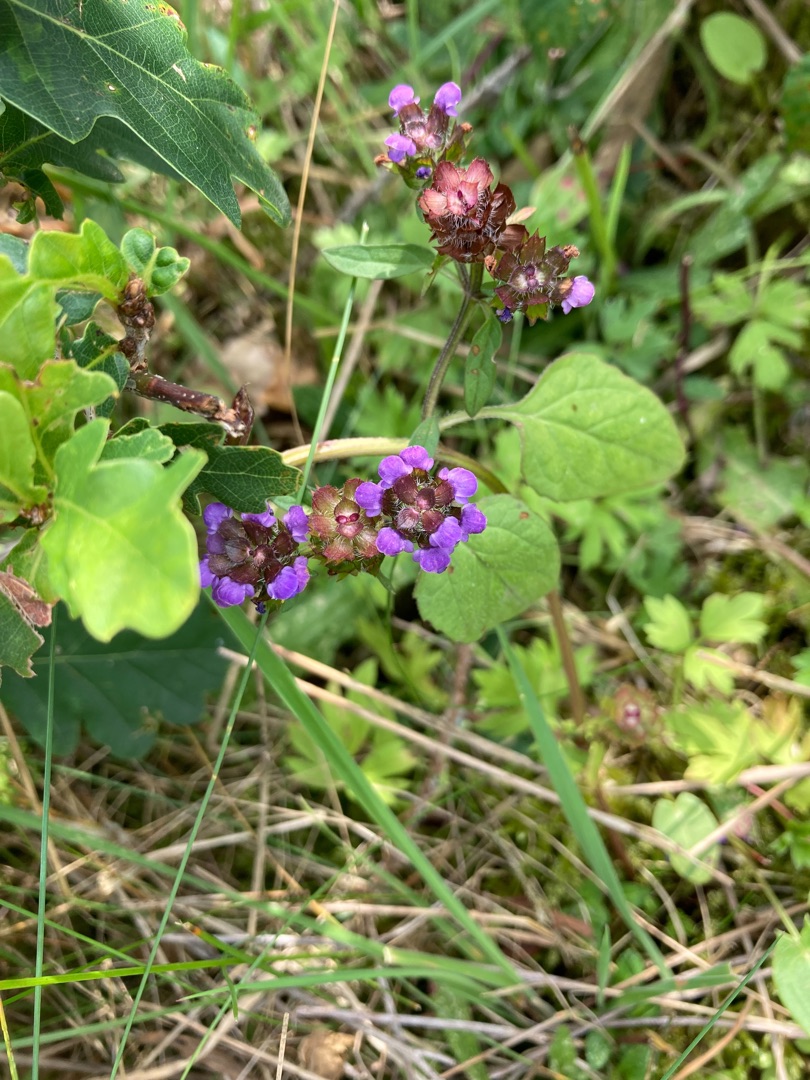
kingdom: Plantae
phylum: Tracheophyta
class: Magnoliopsida
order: Lamiales
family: Lamiaceae
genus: Prunella
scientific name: Prunella vulgaris
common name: Almindelig brunelle
